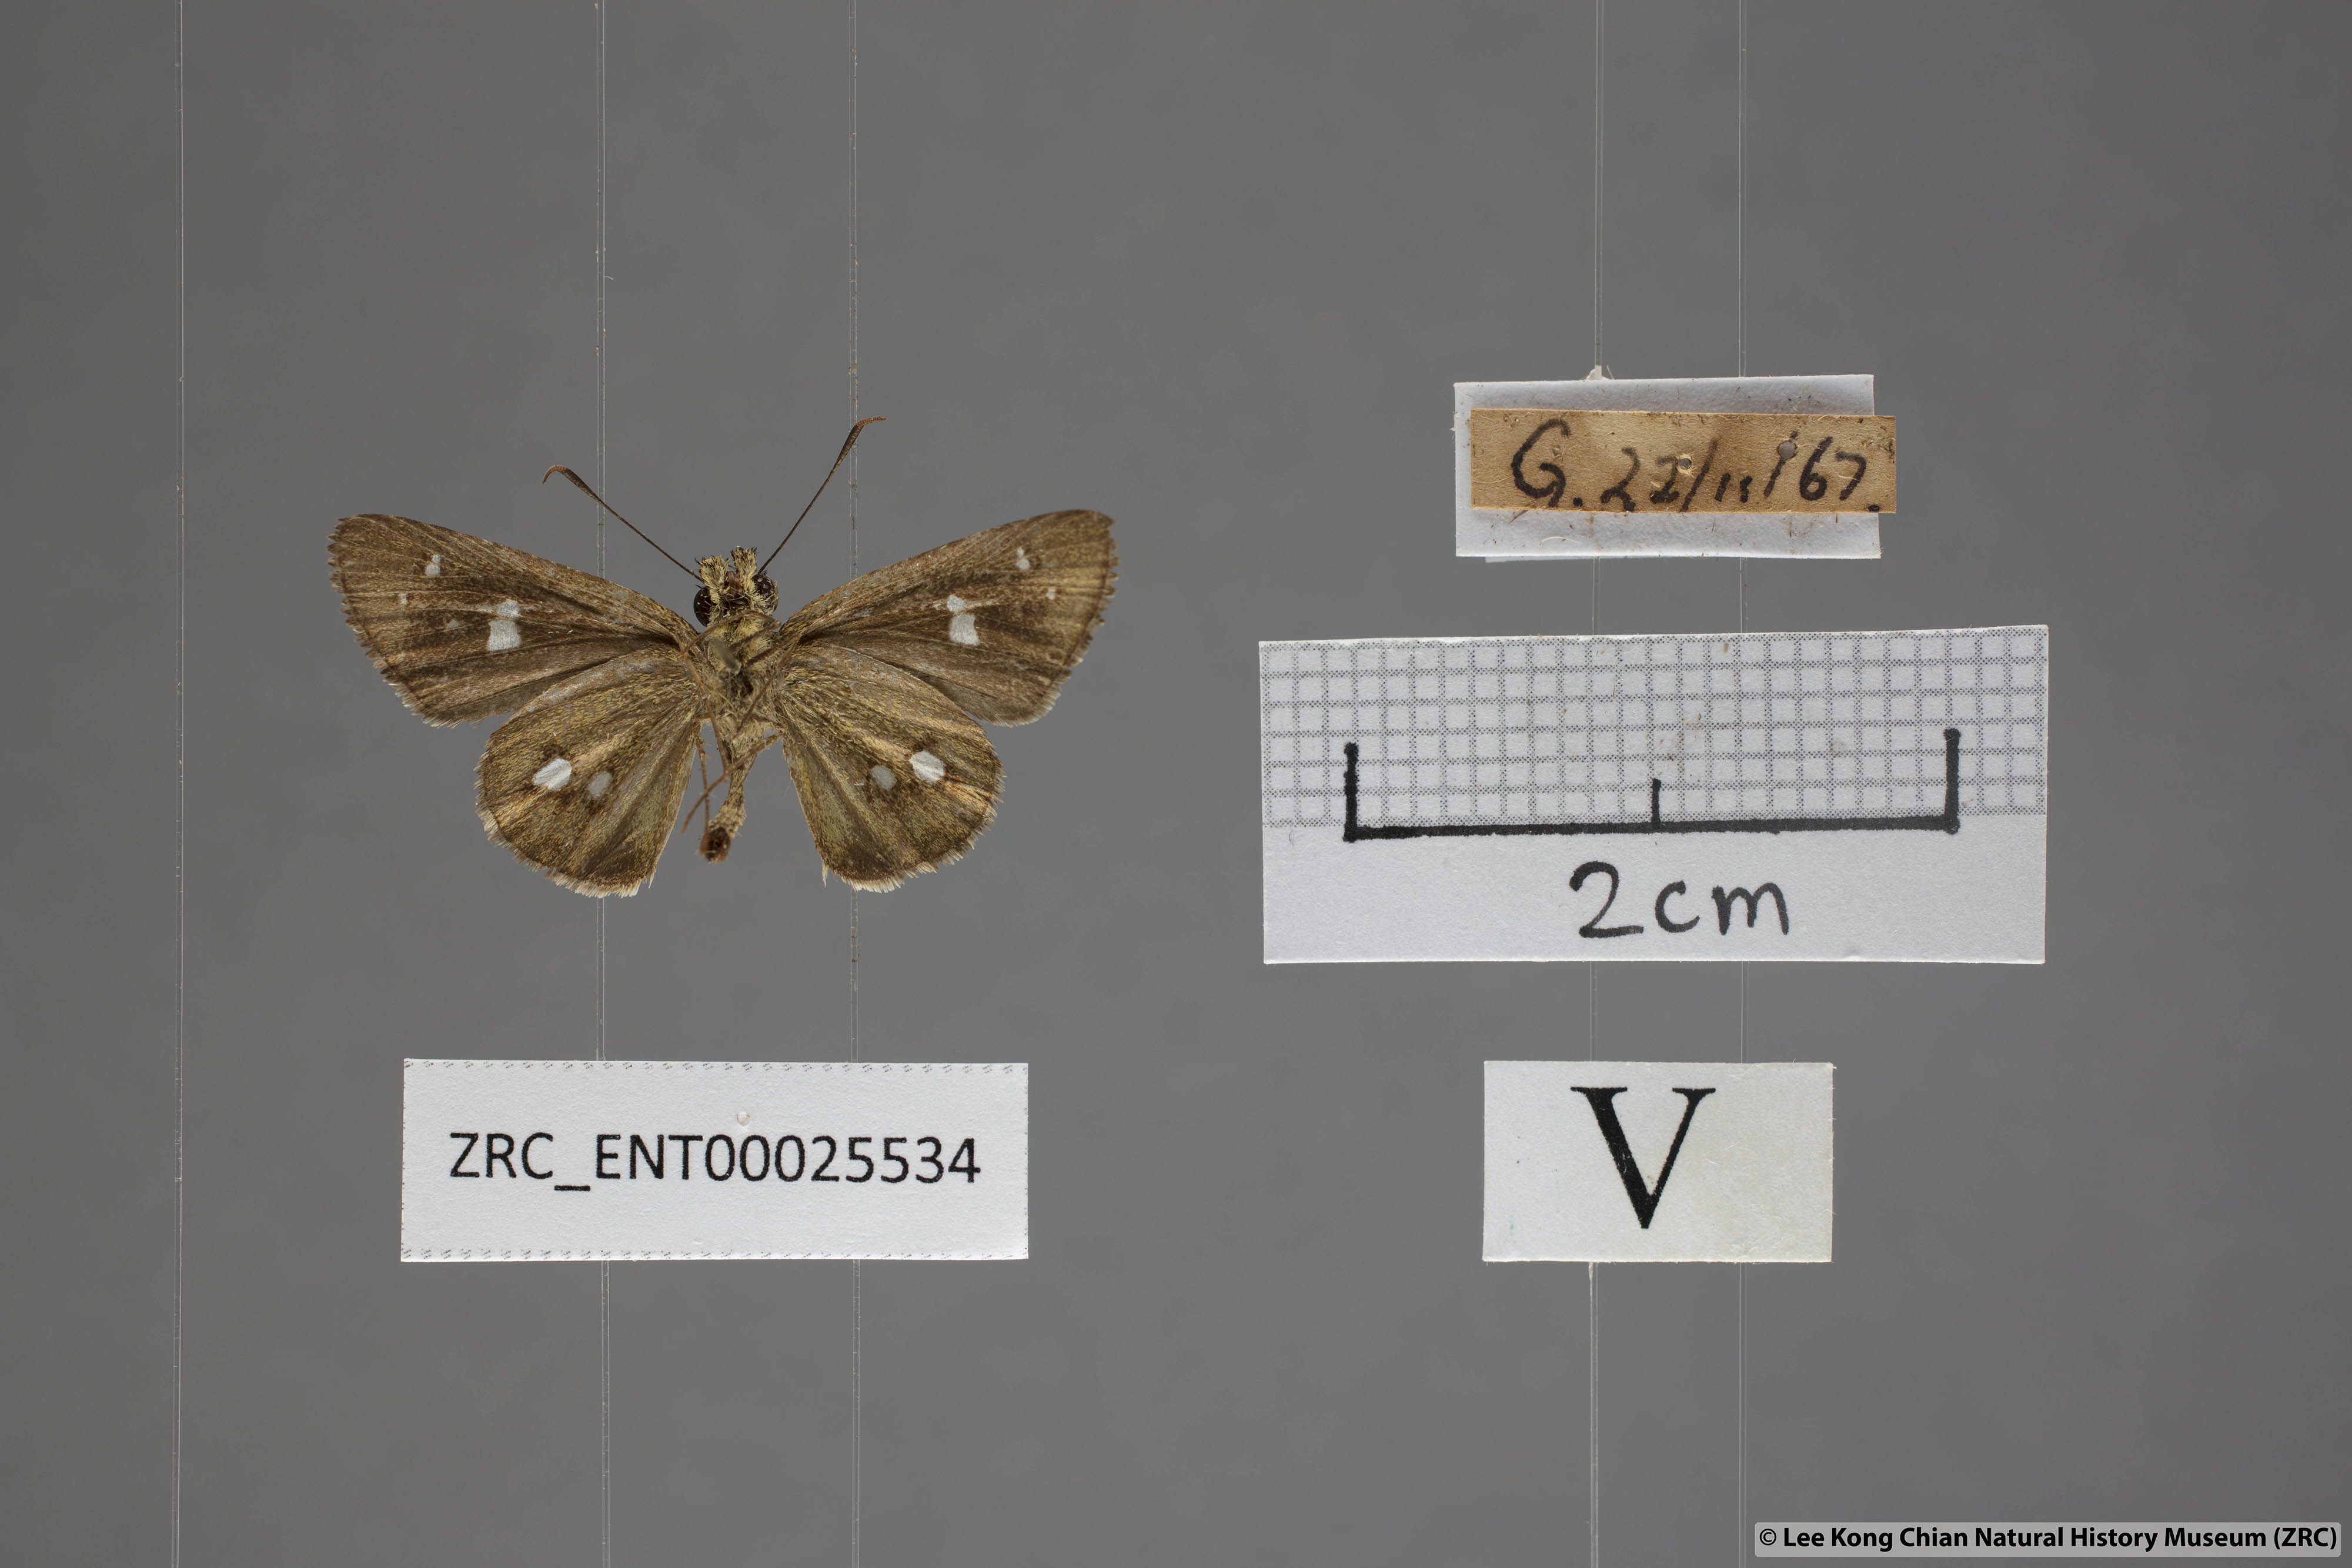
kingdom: Animalia
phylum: Arthropoda
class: Insecta
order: Lepidoptera
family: Hesperiidae
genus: Scobura
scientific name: Scobura isota
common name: Swinhoe's forest bob
